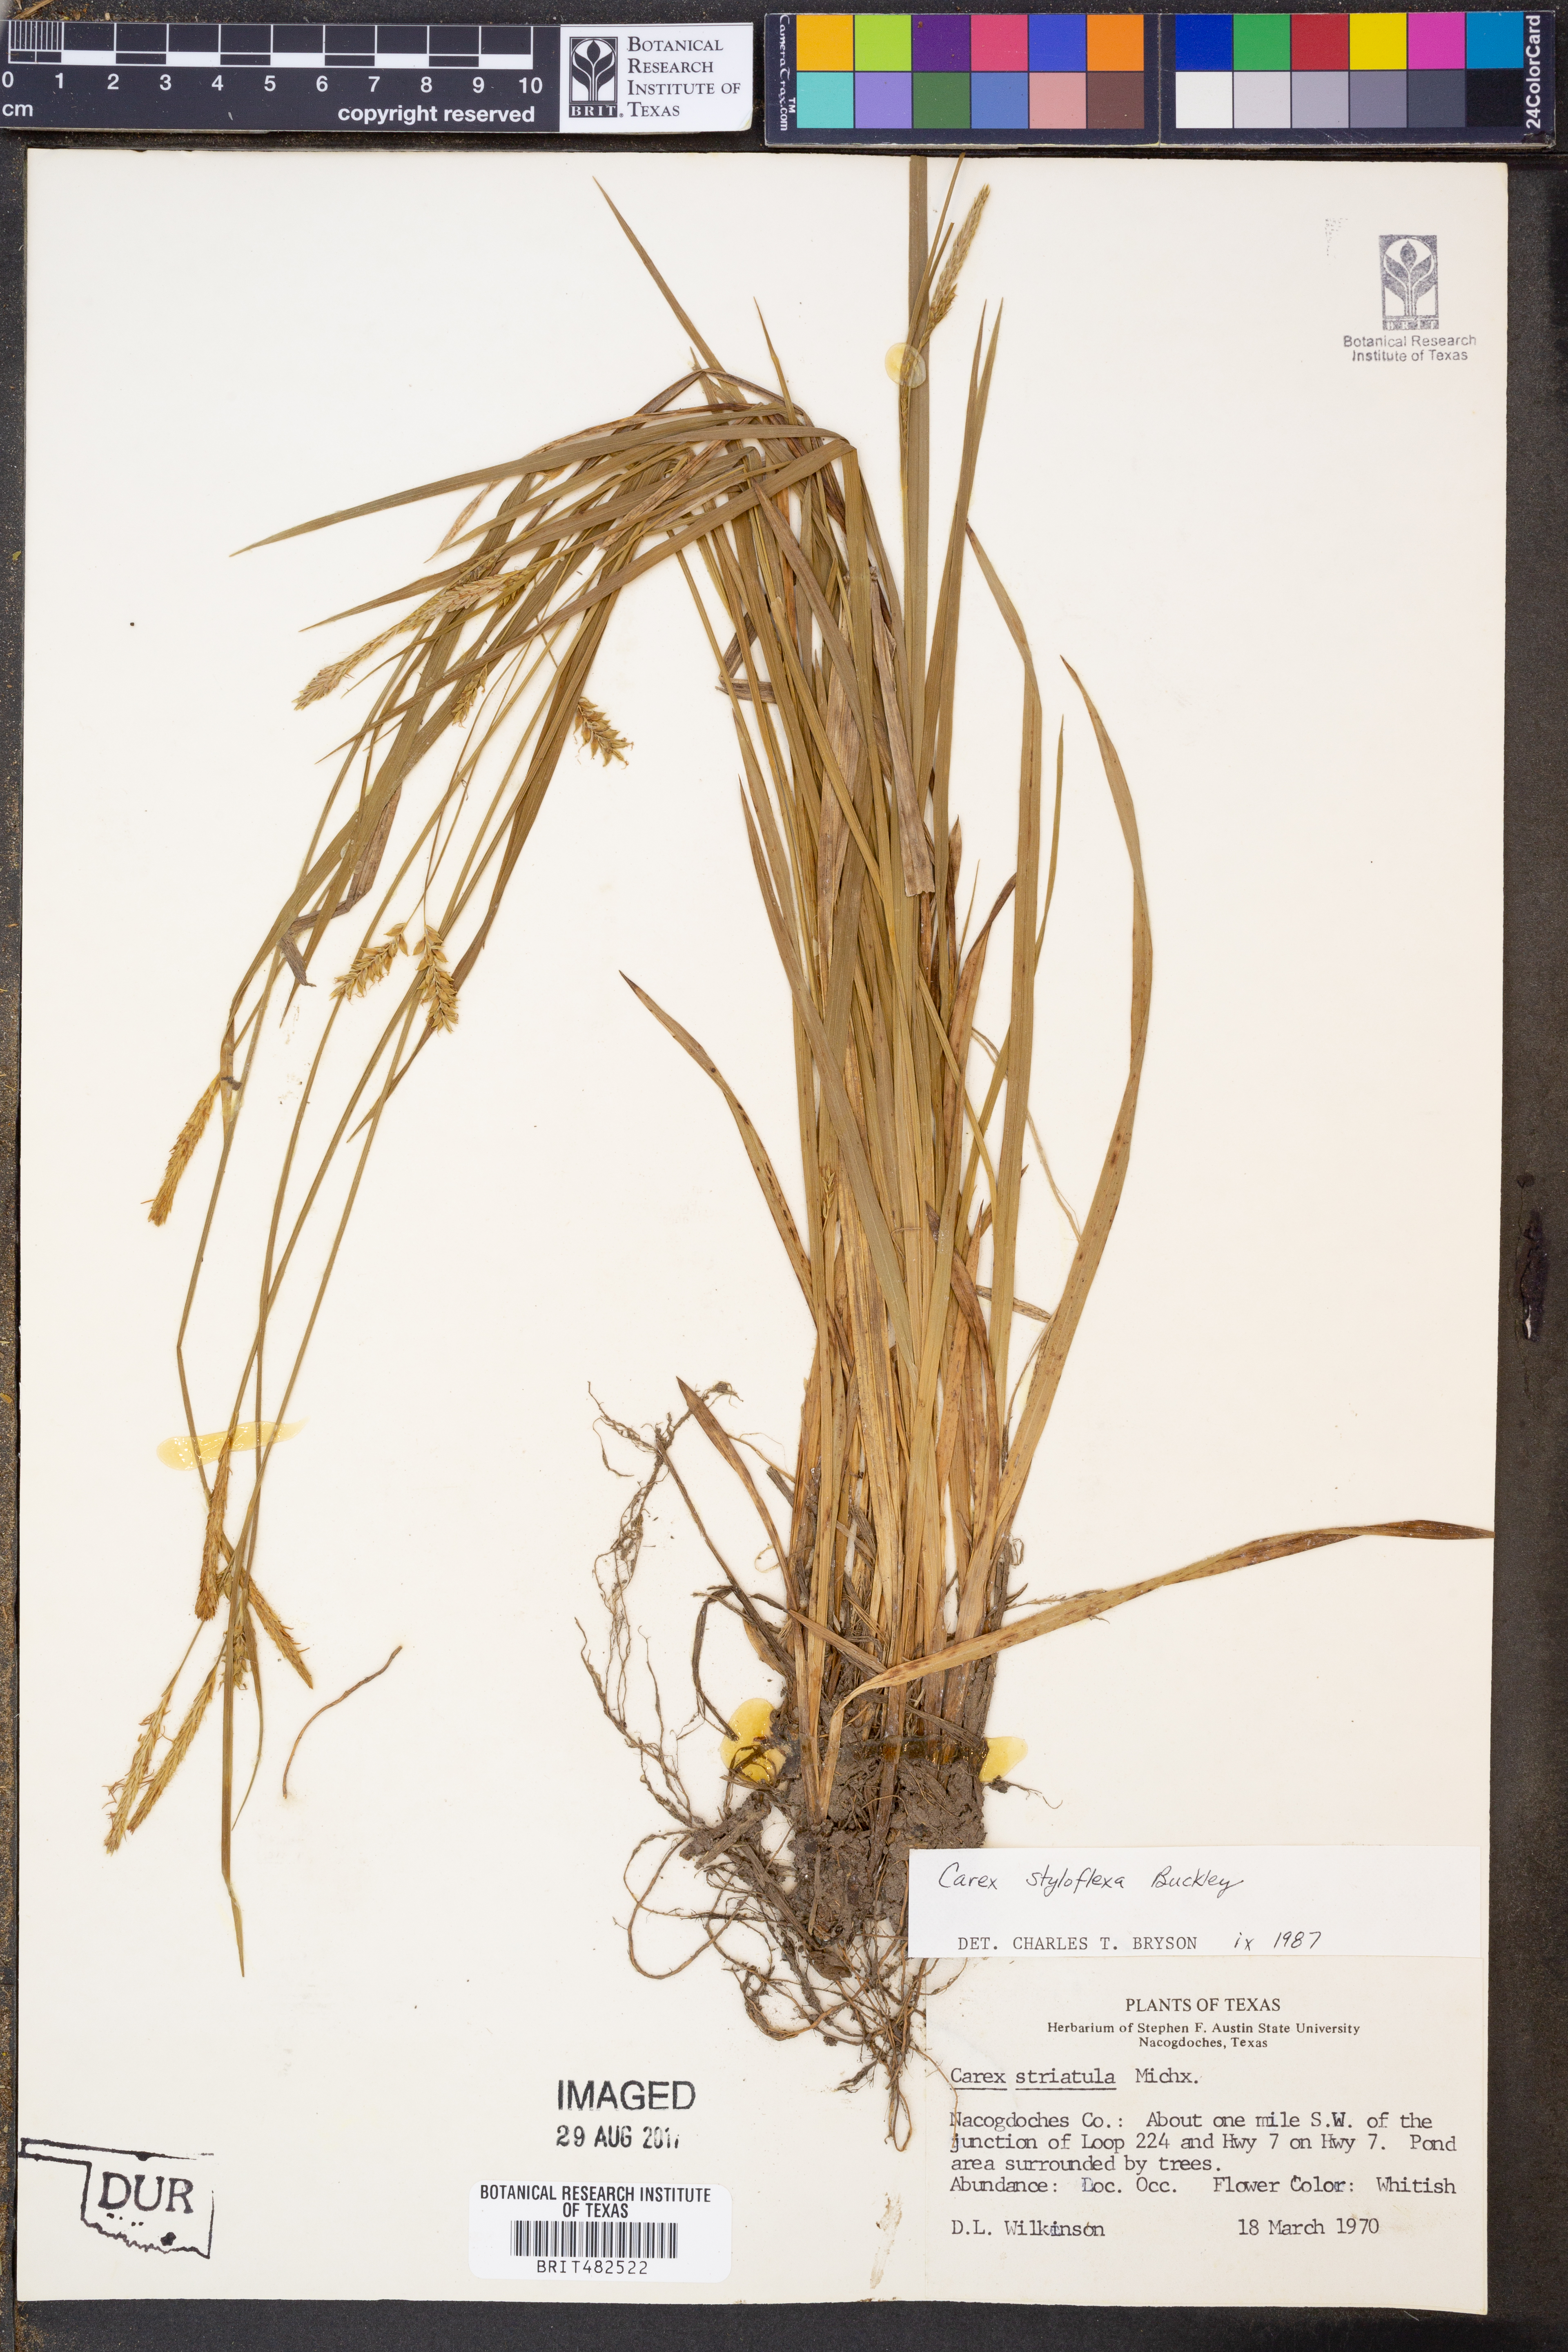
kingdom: Plantae
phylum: Tracheophyta
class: Liliopsida
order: Poales
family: Cyperaceae
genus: Carex
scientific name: Carex styloflexa
